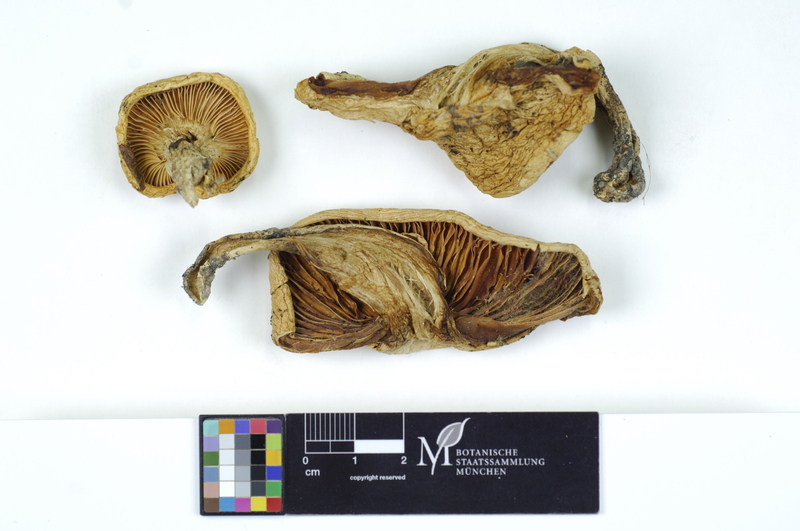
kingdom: Fungi
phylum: Basidiomycota
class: Agaricomycetes
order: Agaricales
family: Hygrophoraceae
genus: Hygrophorus
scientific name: Hygrophorus poetarum
